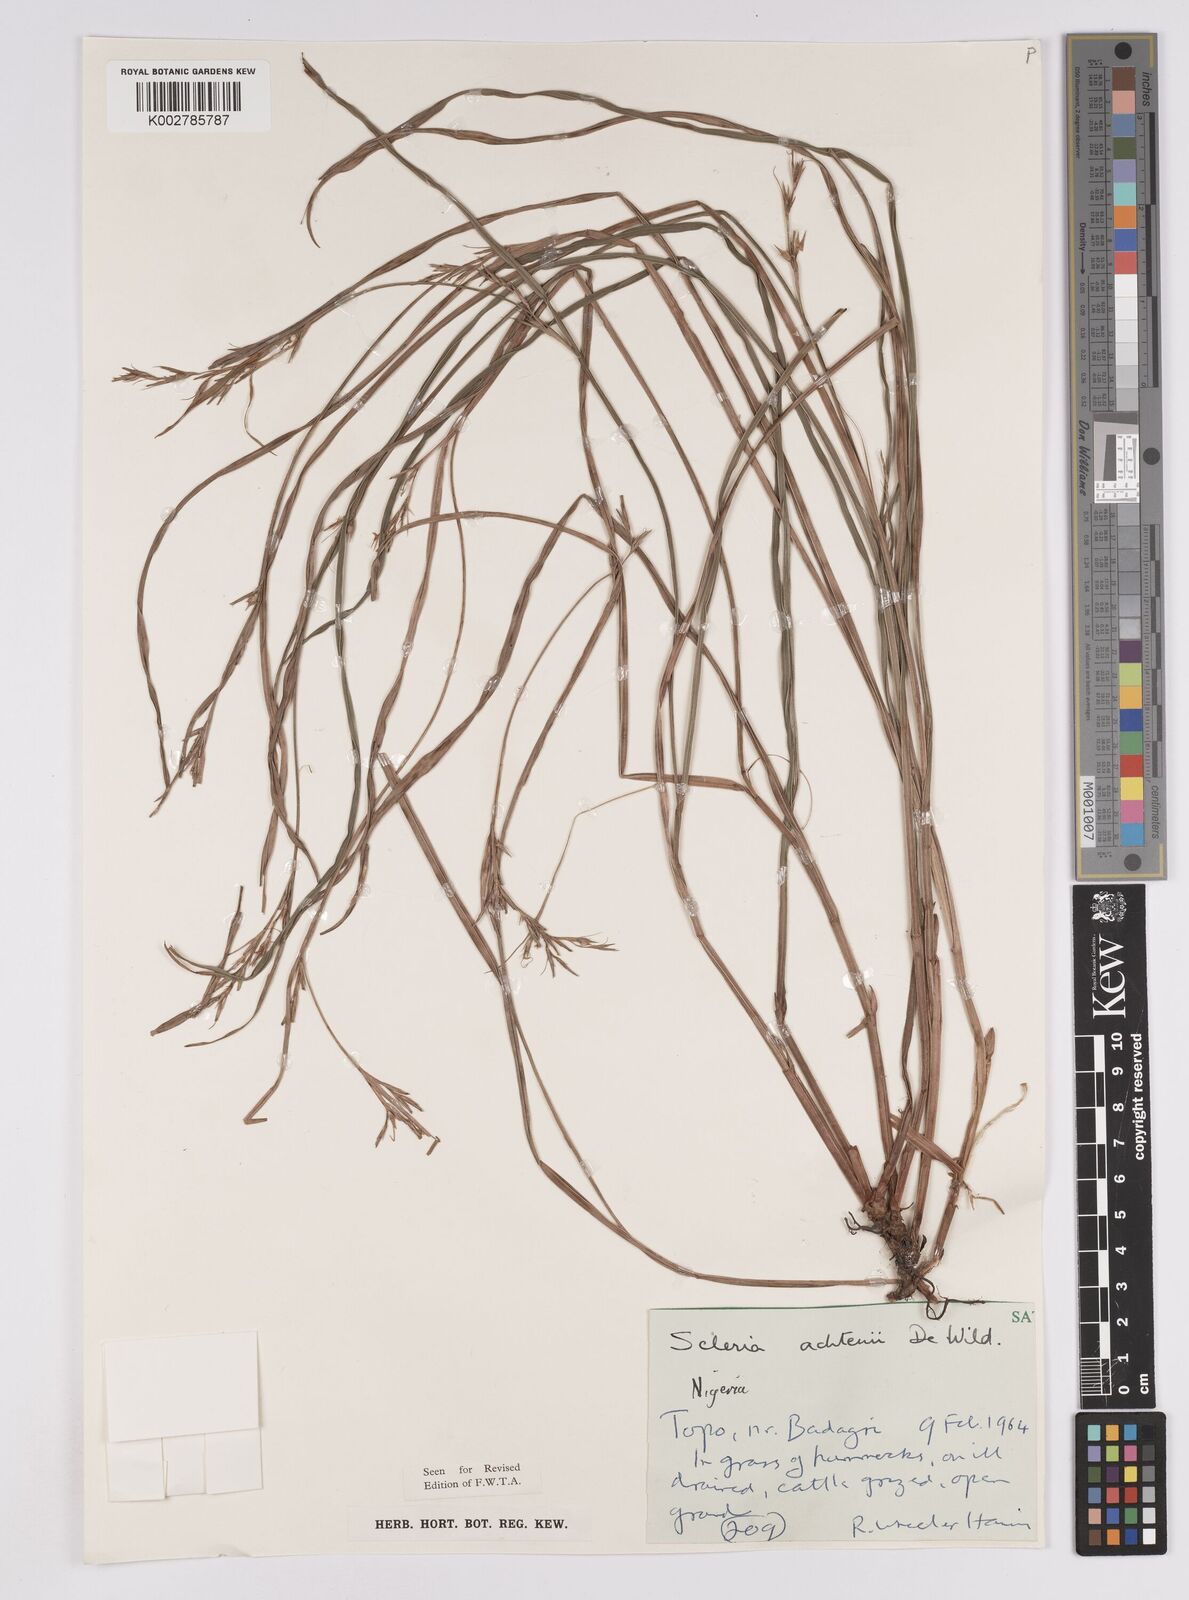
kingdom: Plantae
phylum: Tracheophyta
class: Liliopsida
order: Poales
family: Cyperaceae
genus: Scleria
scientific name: Scleria achtenii
